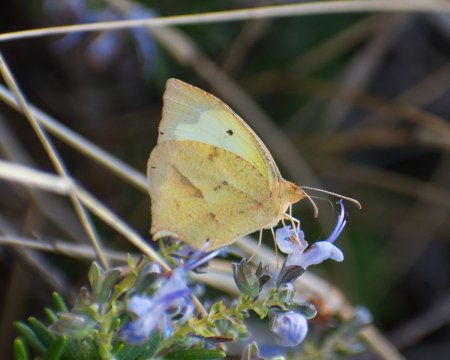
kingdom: Animalia
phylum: Arthropoda
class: Insecta
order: Lepidoptera
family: Pieridae
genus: Eurema
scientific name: Eurema mexicana
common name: Mexican Yellow
